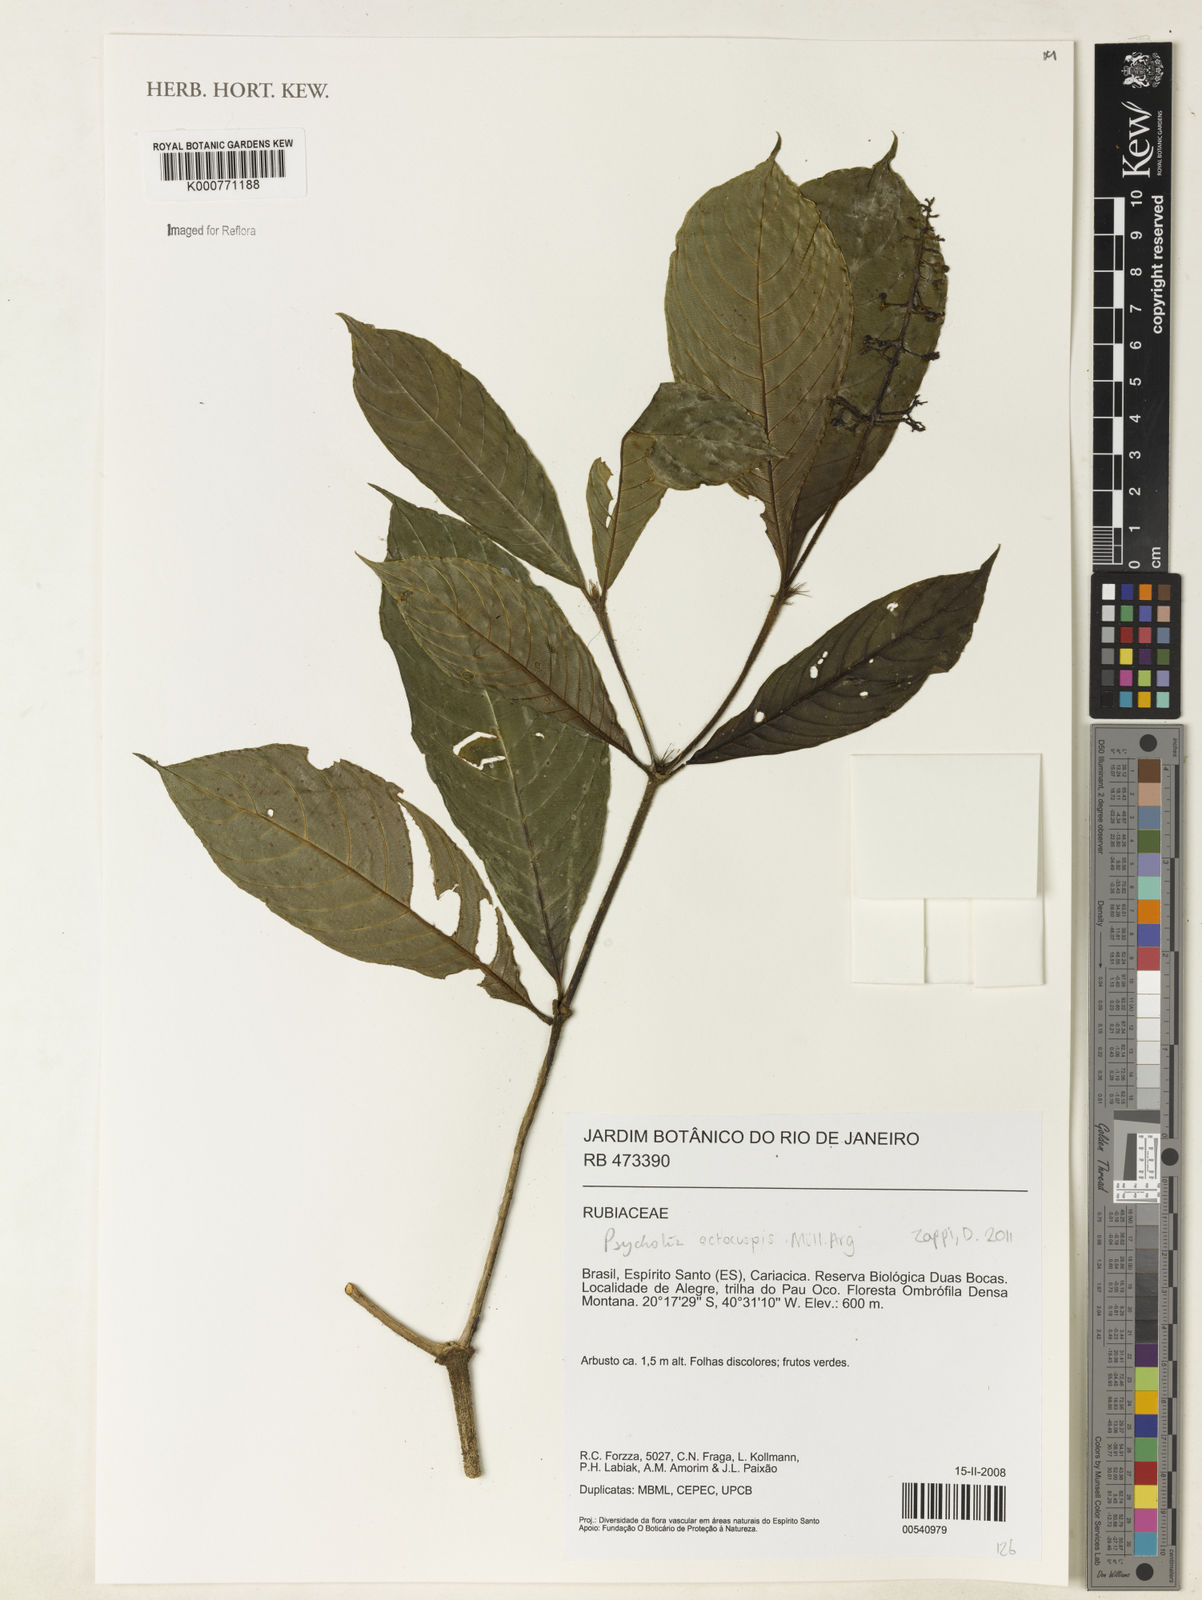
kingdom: Plantae
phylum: Tracheophyta
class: Magnoliopsida
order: Gentianales
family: Rubiaceae
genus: Psychotria
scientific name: Psychotria
